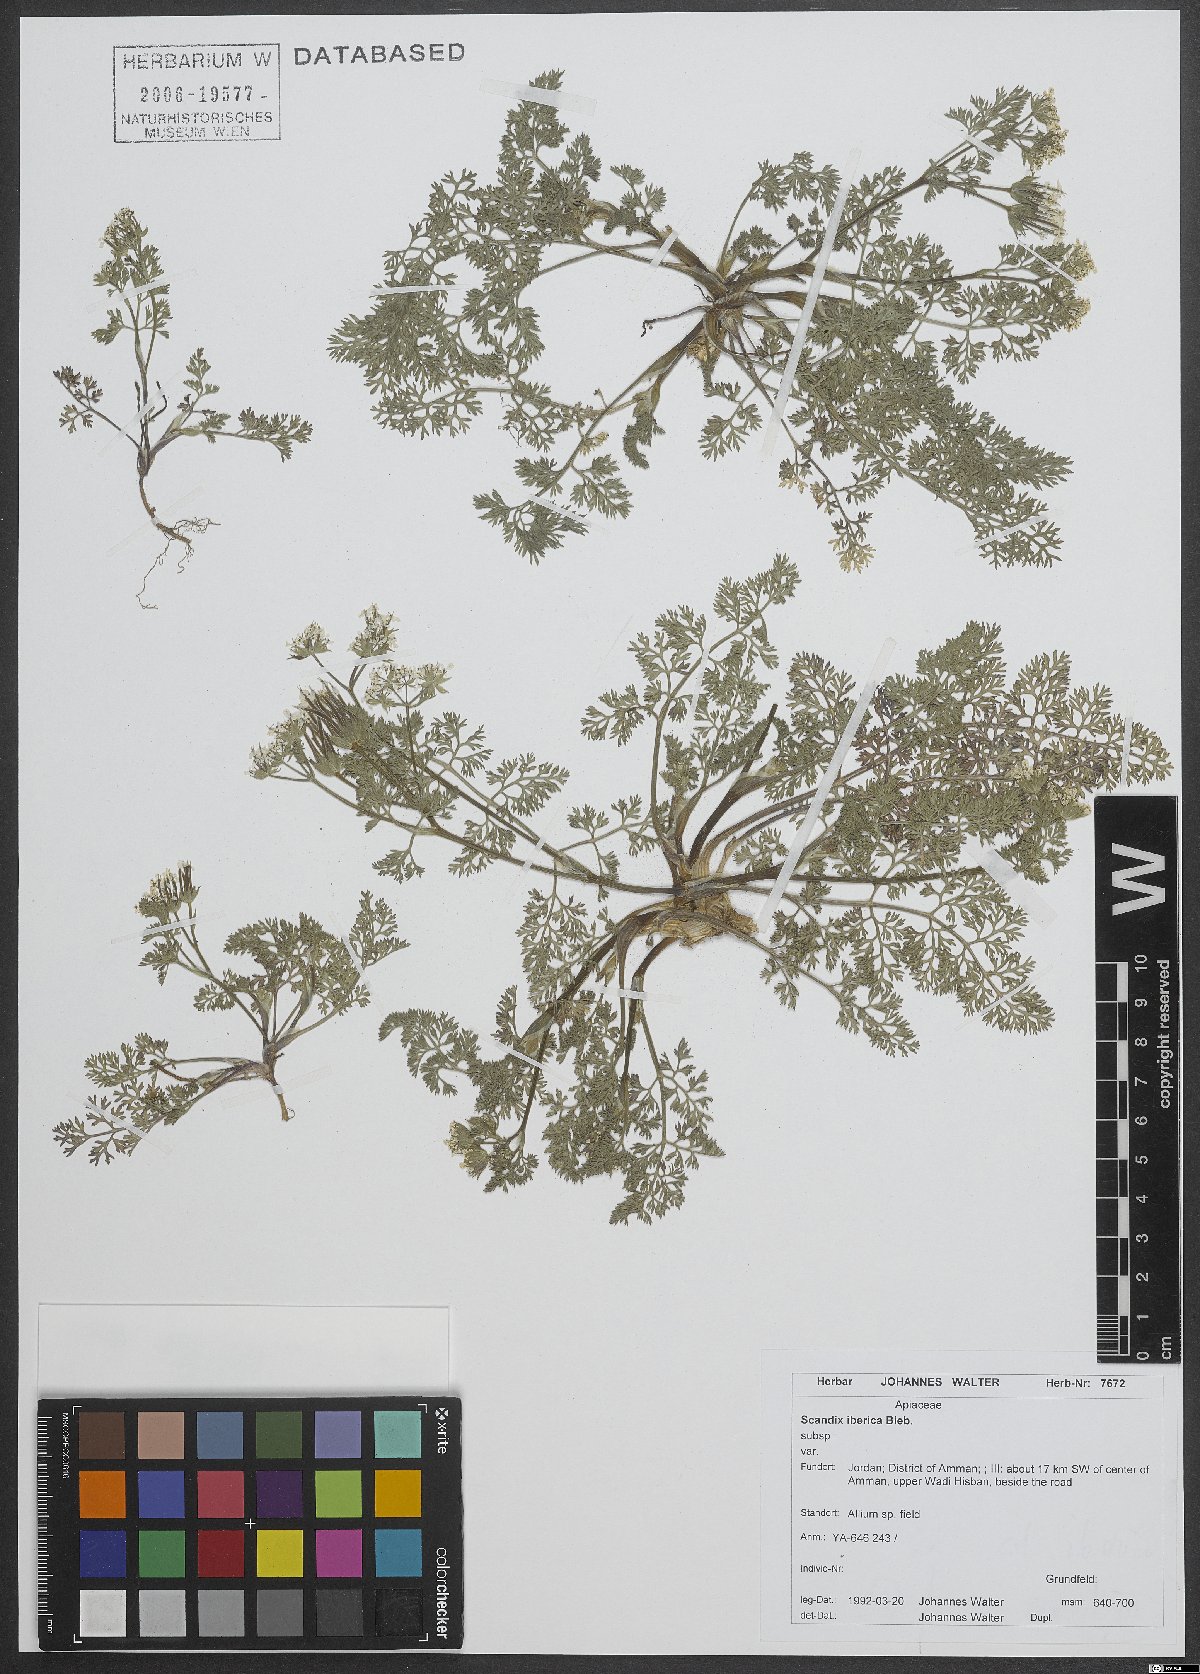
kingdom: Plantae
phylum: Tracheophyta
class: Magnoliopsida
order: Apiales
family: Apiaceae
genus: Scandix
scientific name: Scandix iberica
